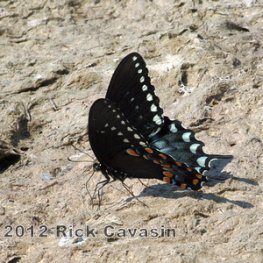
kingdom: Animalia
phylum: Arthropoda
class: Insecta
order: Lepidoptera
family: Papilionidae
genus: Pterourus
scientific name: Pterourus troilus
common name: Spicebush Swallowtail
